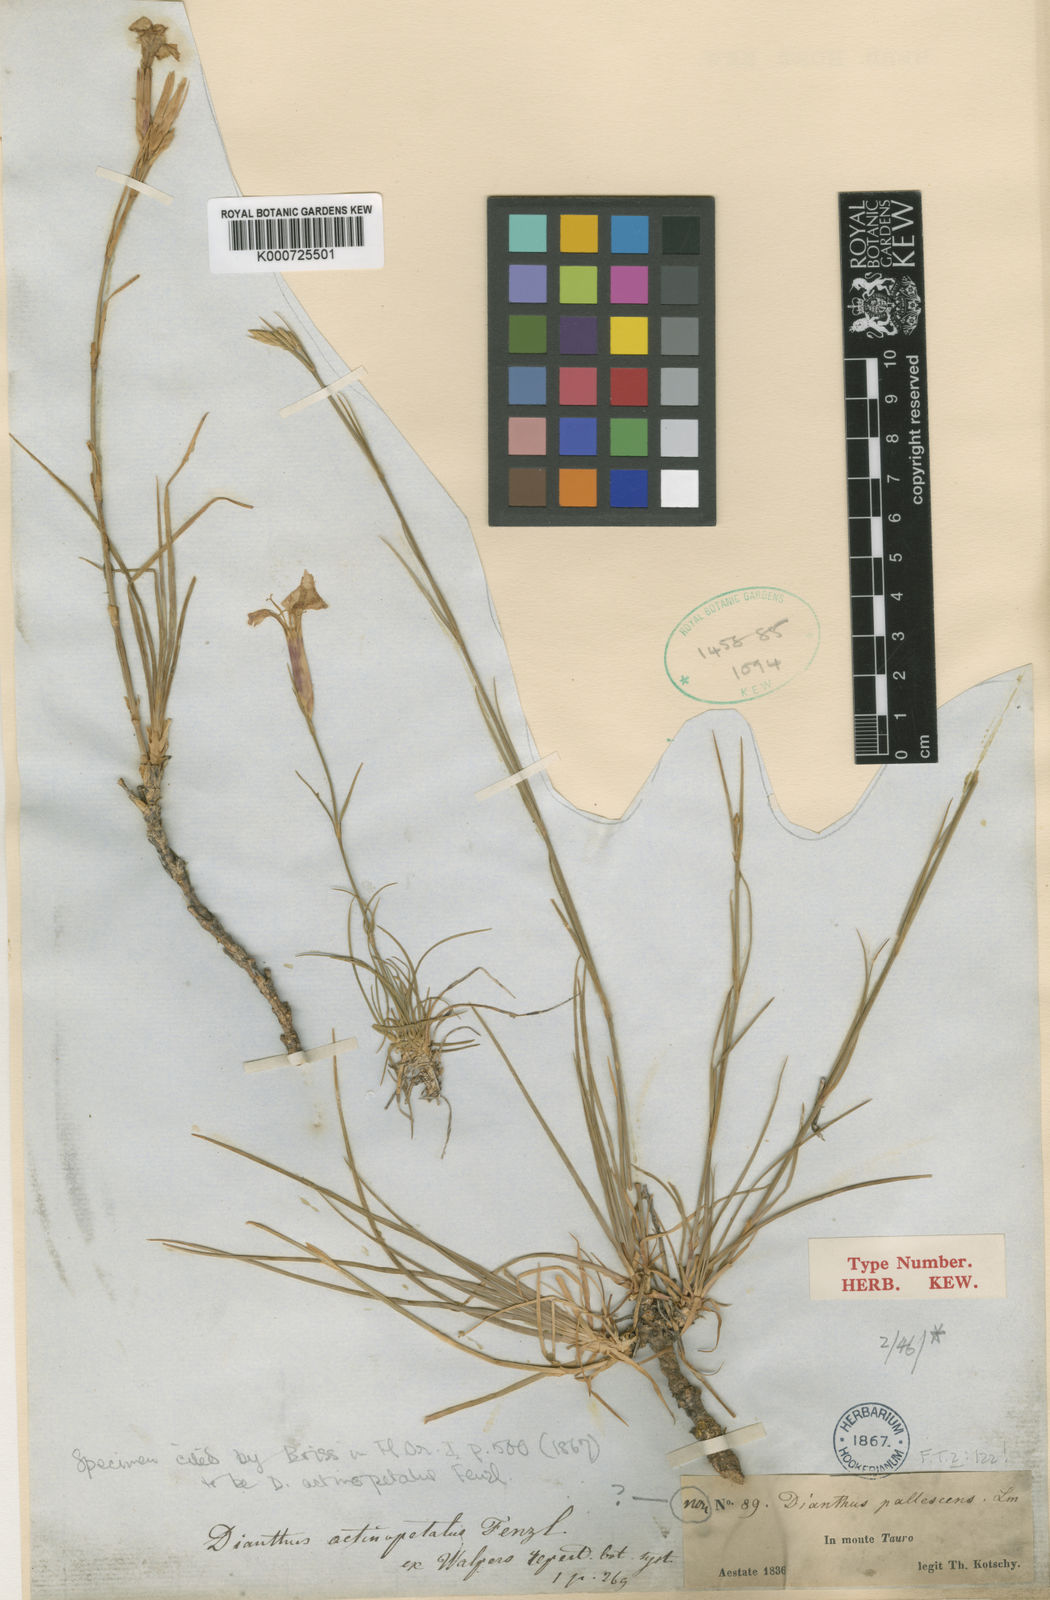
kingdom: Plantae
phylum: Tracheophyta
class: Magnoliopsida
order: Caryophyllales
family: Caryophyllaceae
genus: Dianthus
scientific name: Dianthus
